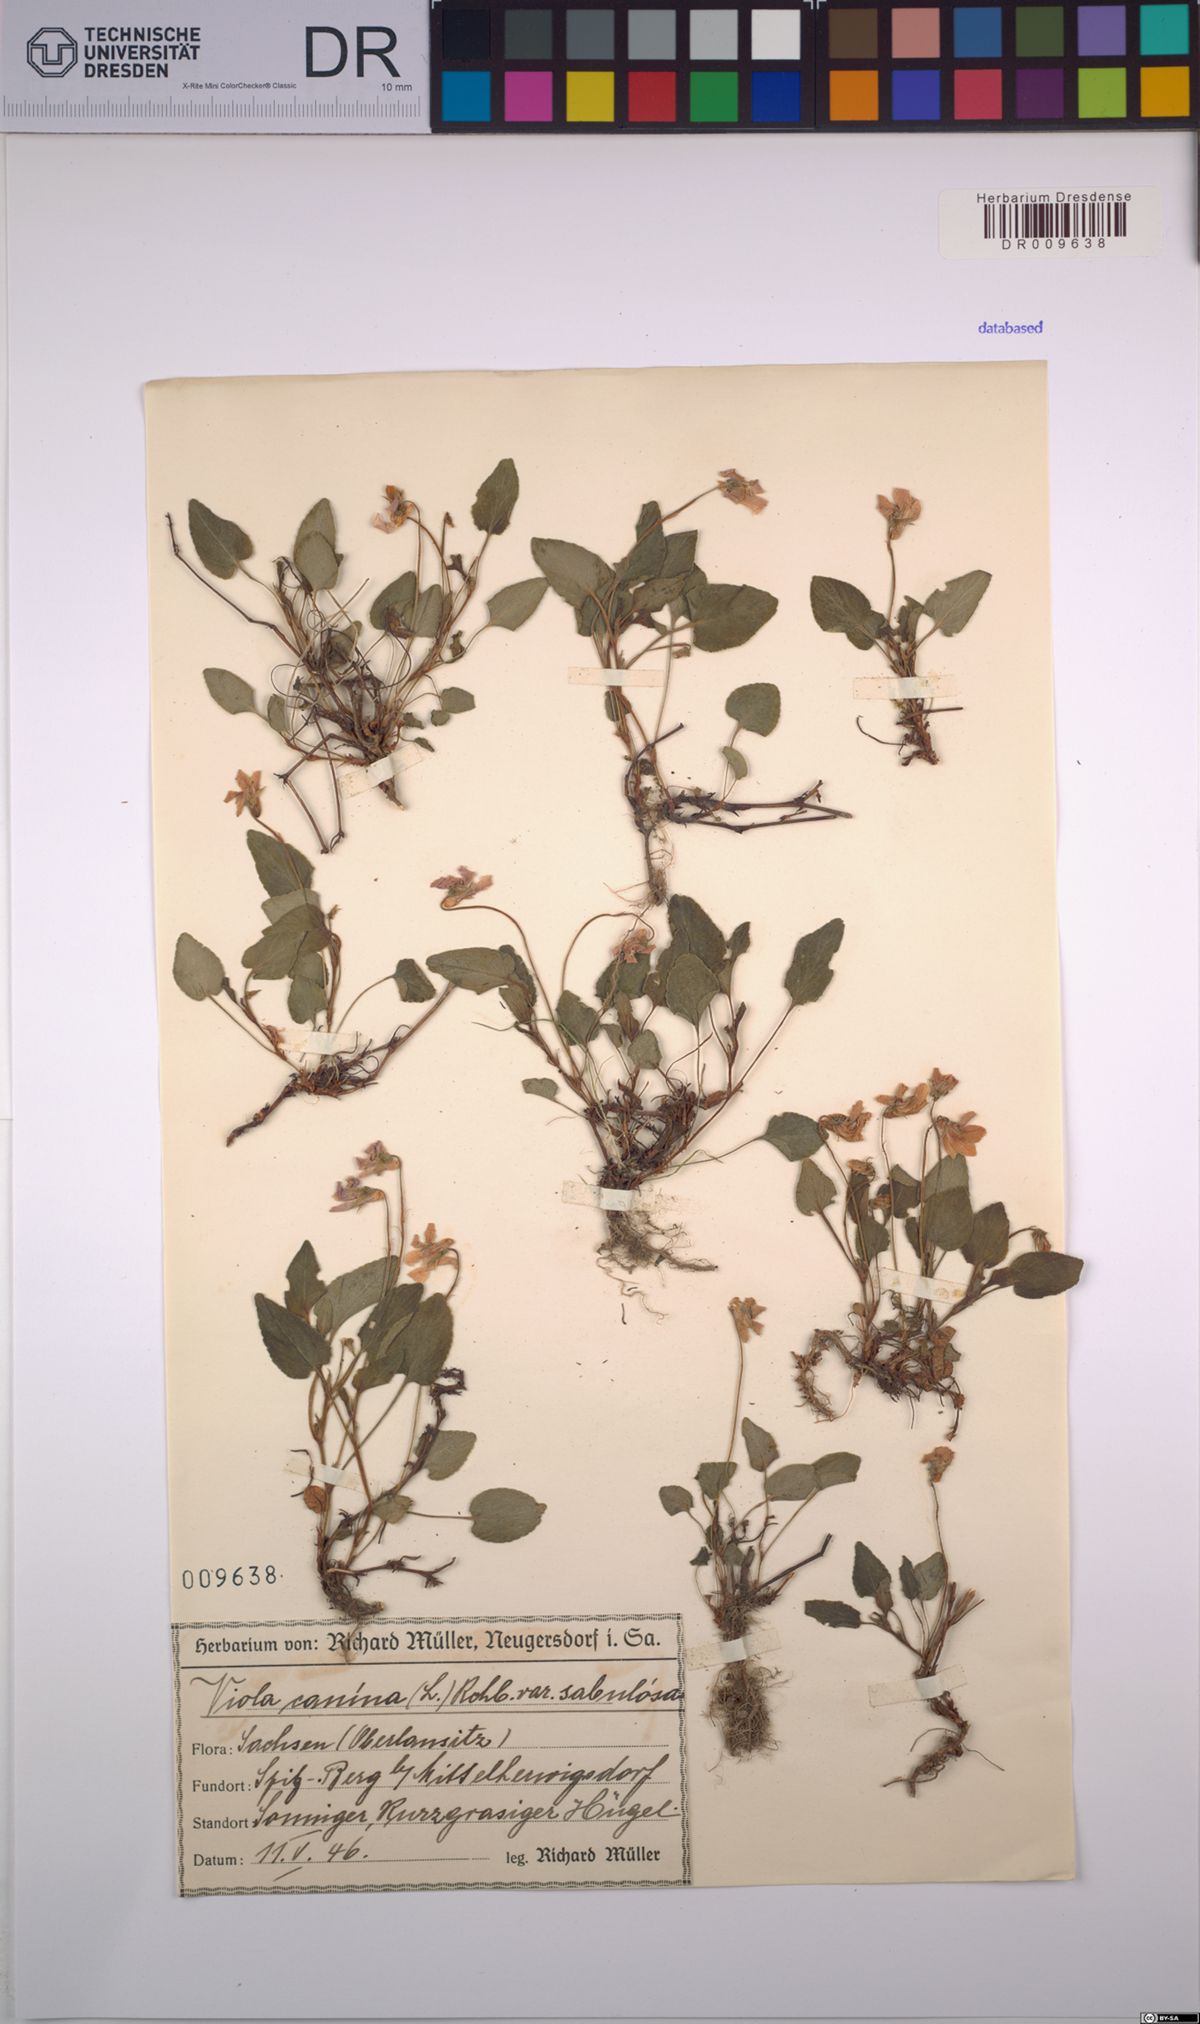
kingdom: Plantae
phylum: Tracheophyta
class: Magnoliopsida
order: Malpighiales
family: Violaceae
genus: Viola
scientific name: Viola canina
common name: Heath dog-violet
